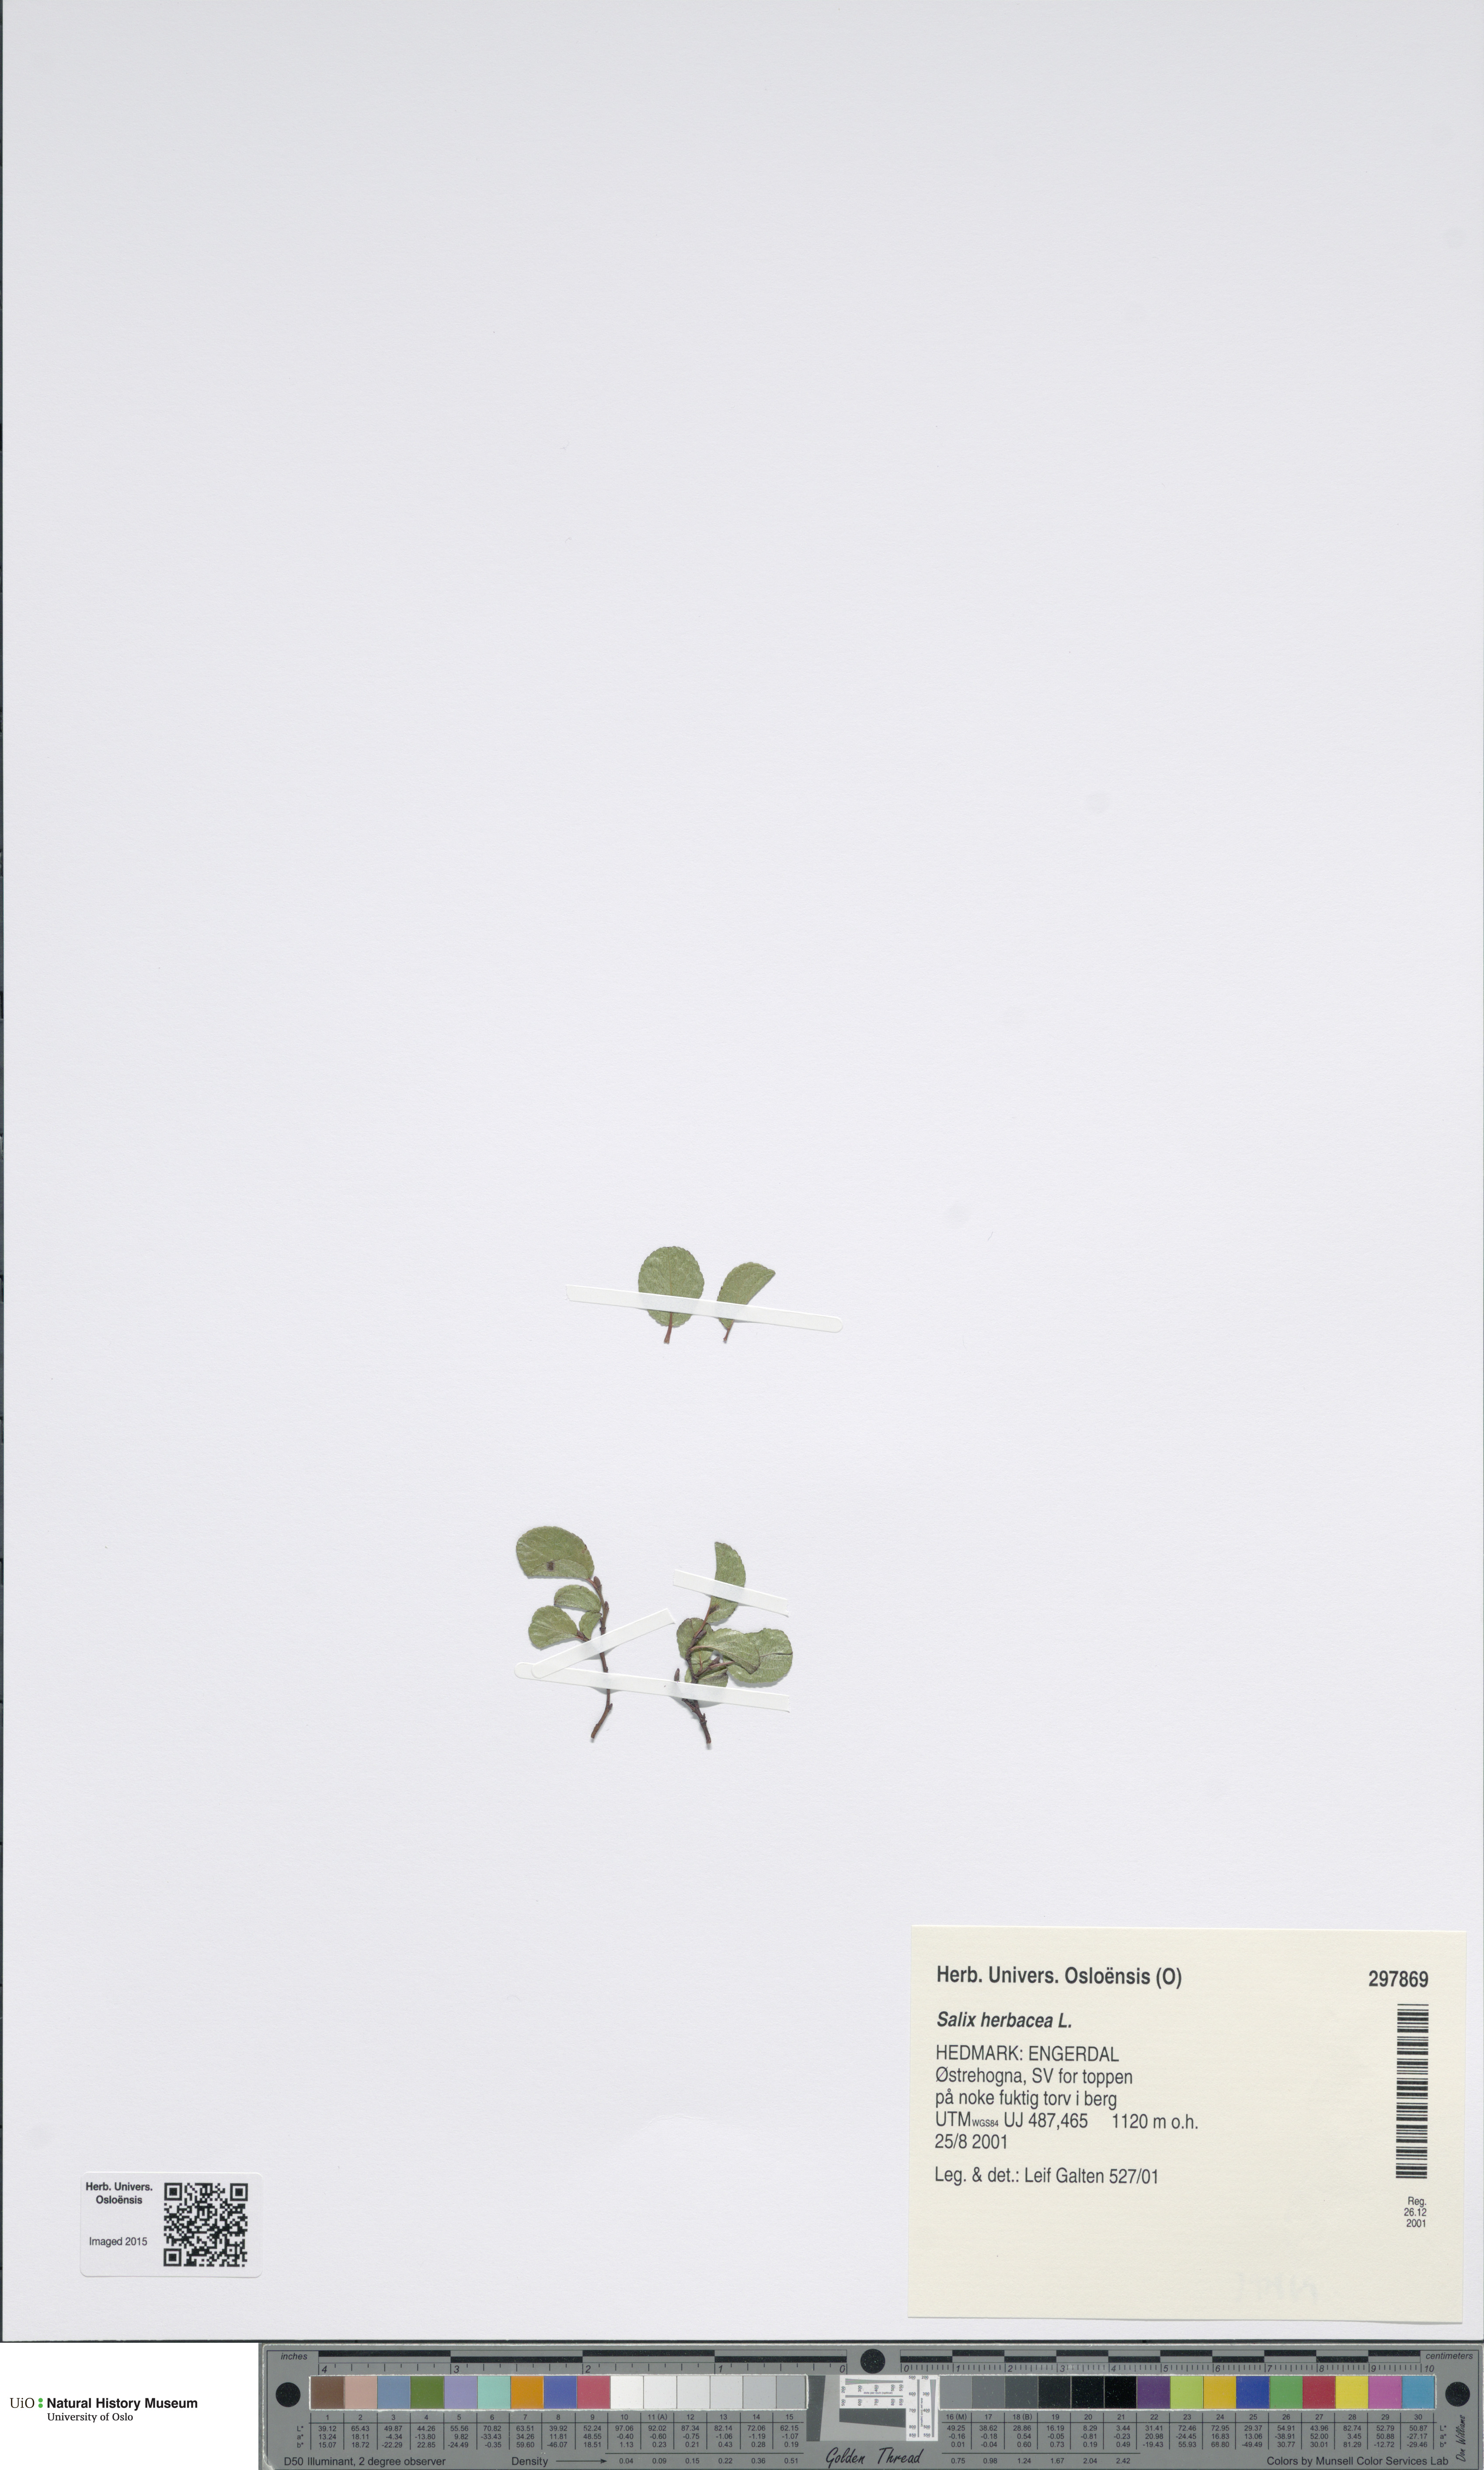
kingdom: Plantae
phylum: Tracheophyta
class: Magnoliopsida
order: Malpighiales
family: Salicaceae
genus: Salix
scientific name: Salix herbacea
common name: Dwarf willow
